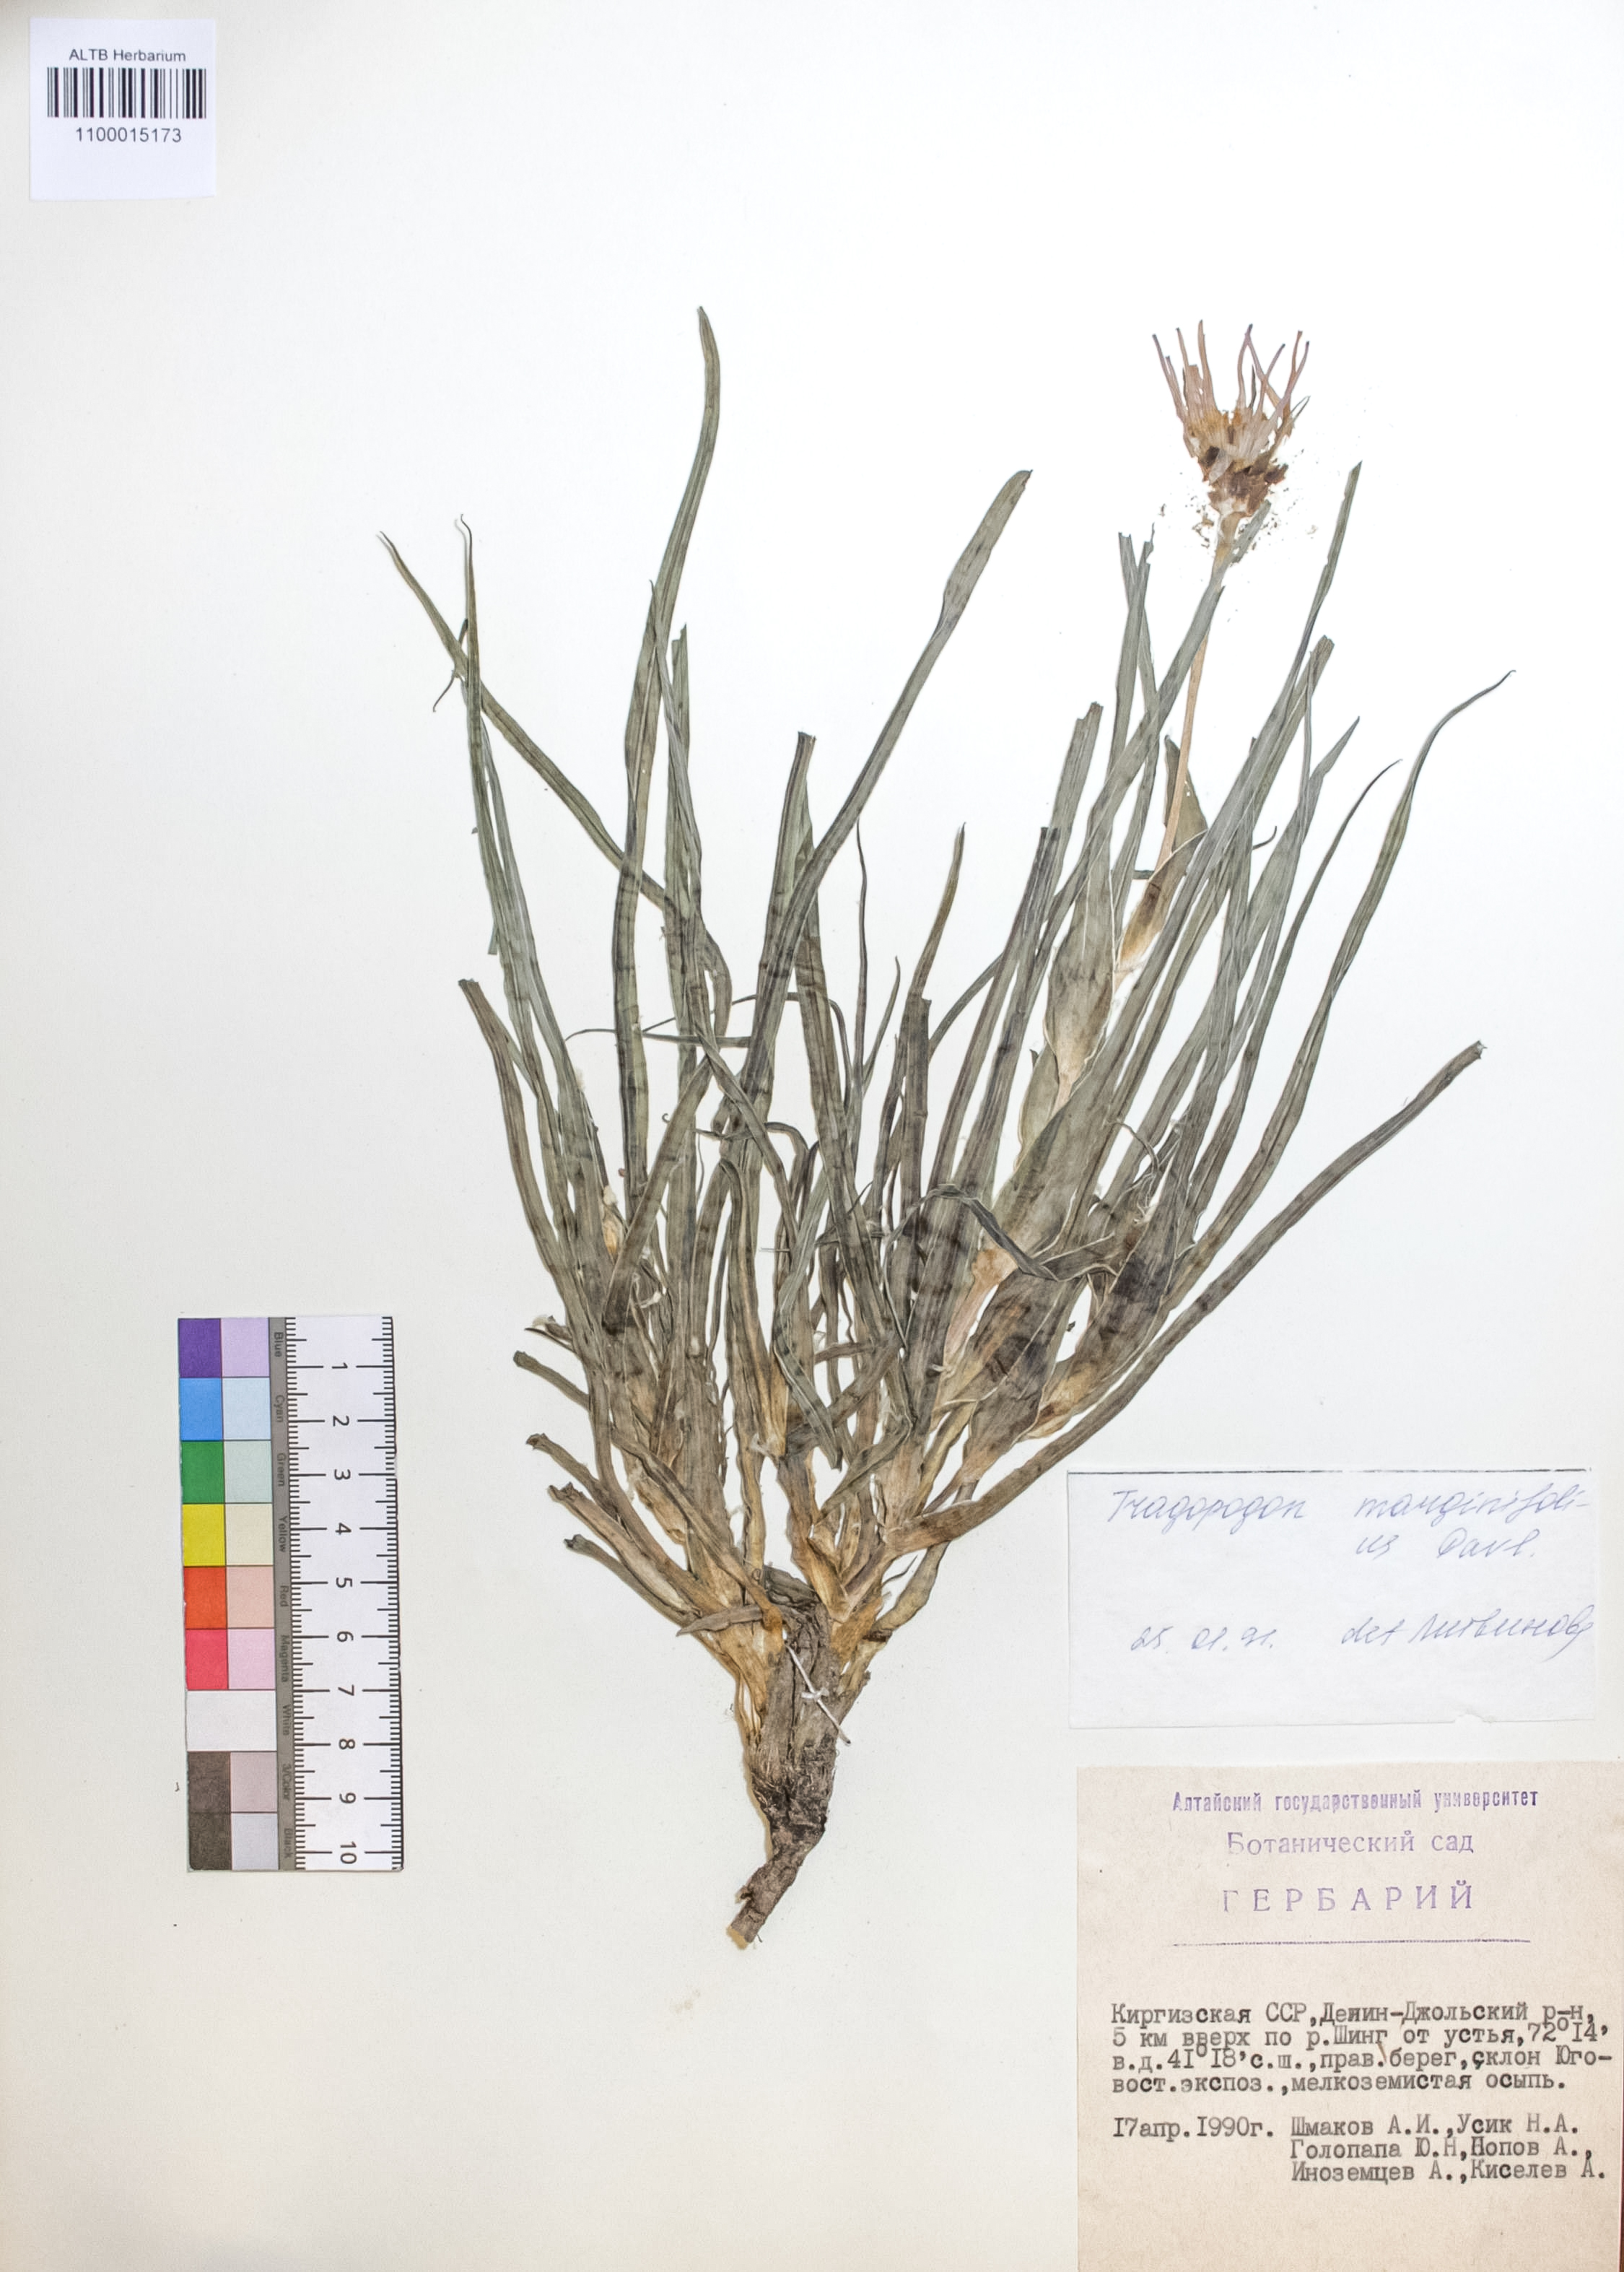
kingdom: Plantae
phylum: Tracheophyta
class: Magnoliopsida
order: Asterales
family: Asteraceae
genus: Tragopogon
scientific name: Tragopogon marginifolius
